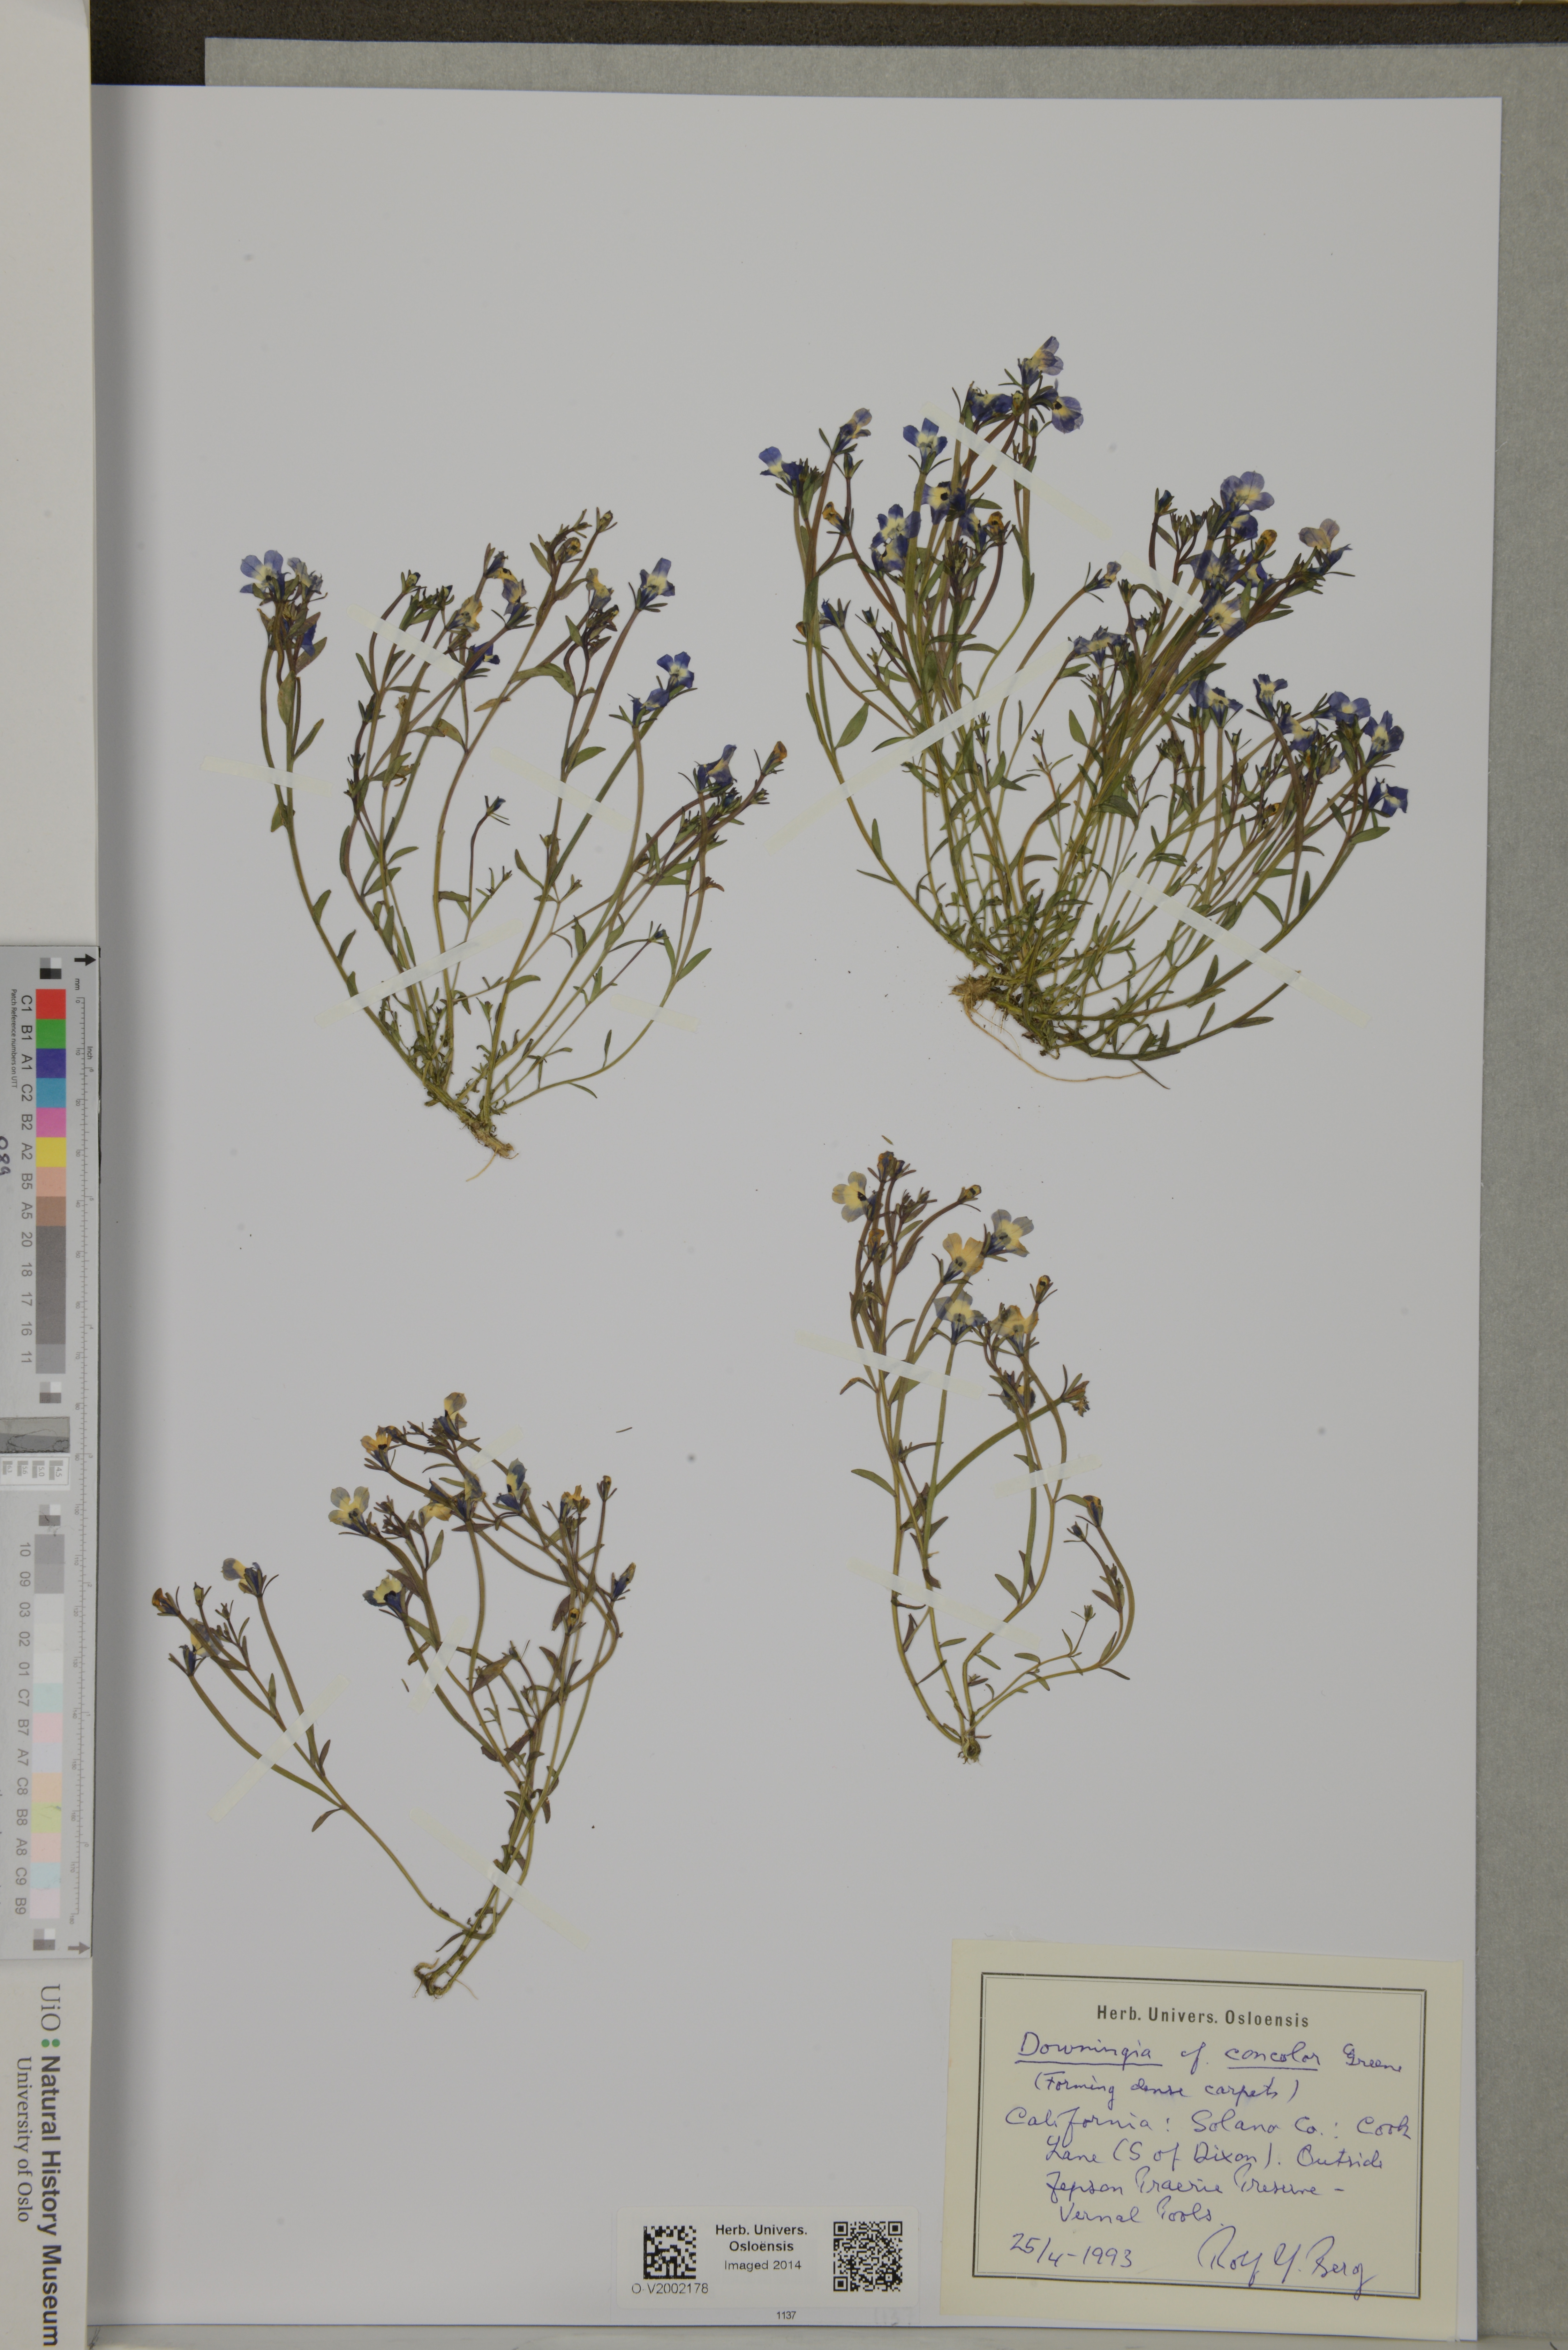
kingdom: Plantae
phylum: Tracheophyta
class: Magnoliopsida
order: Asterales
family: Campanulaceae
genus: Downingia
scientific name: Downingia concolor
